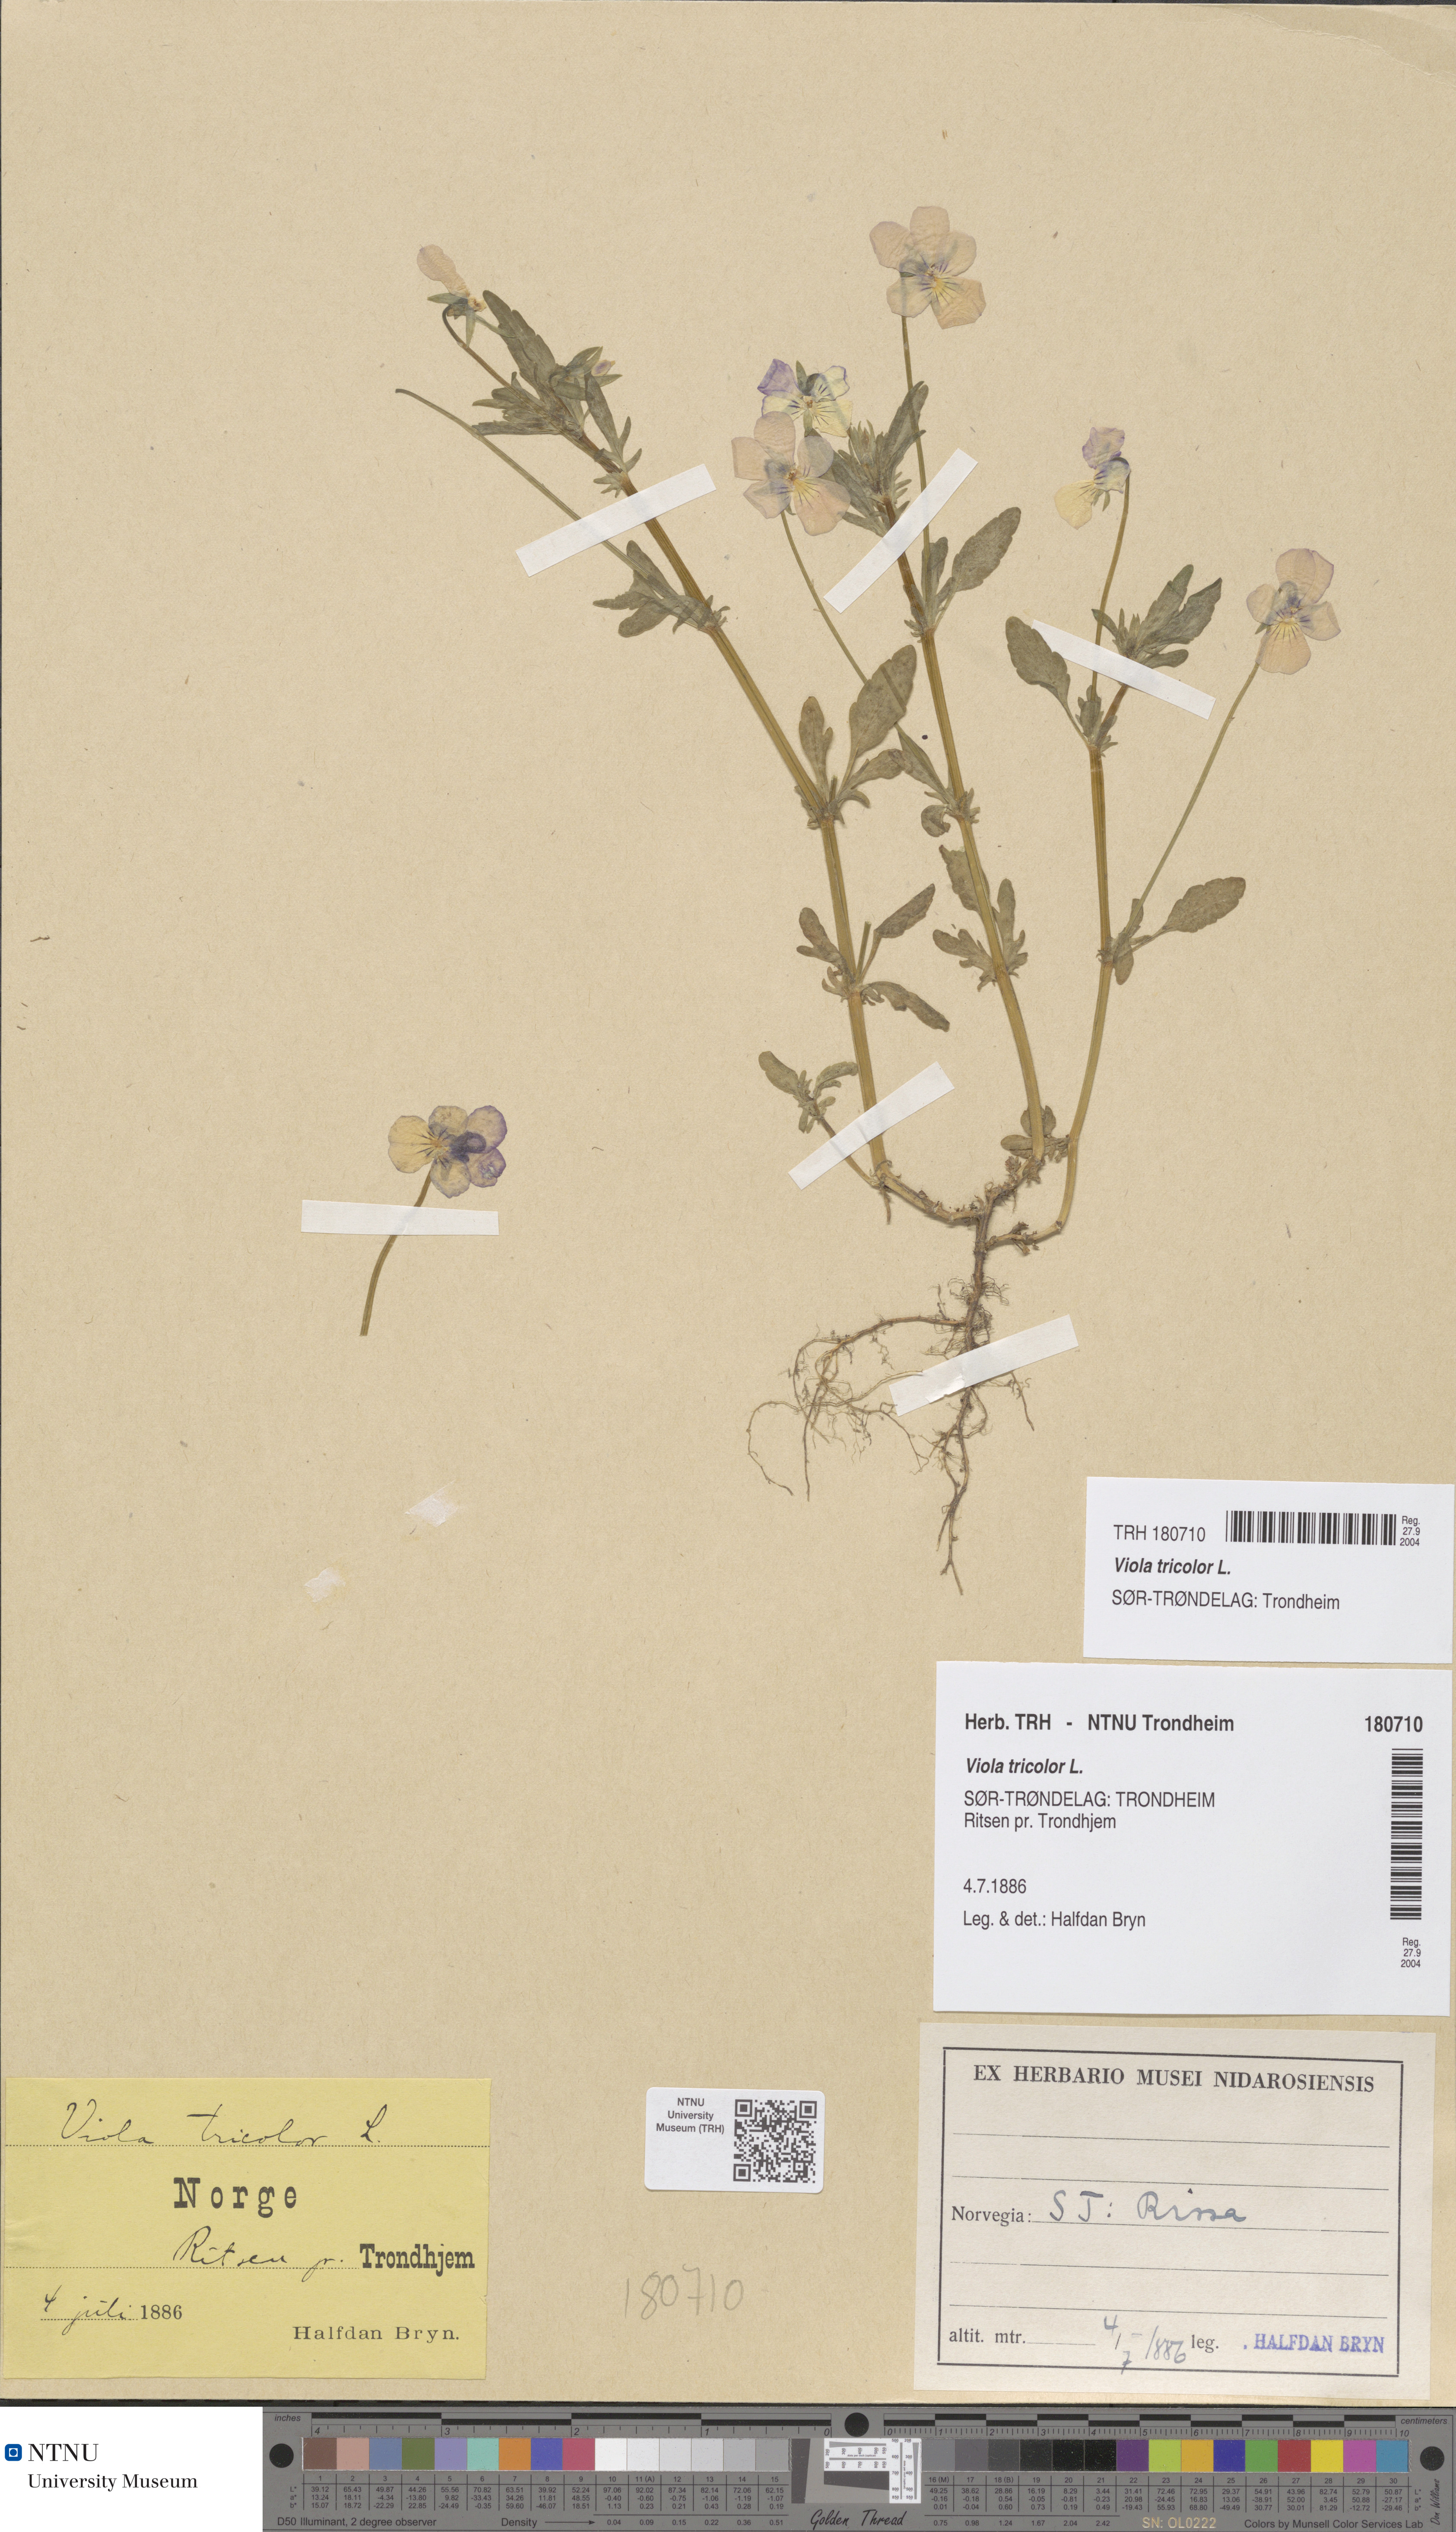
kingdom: Plantae
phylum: Tracheophyta
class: Magnoliopsida
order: Malpighiales
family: Violaceae
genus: Viola
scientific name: Viola tricolor
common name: Pansy
